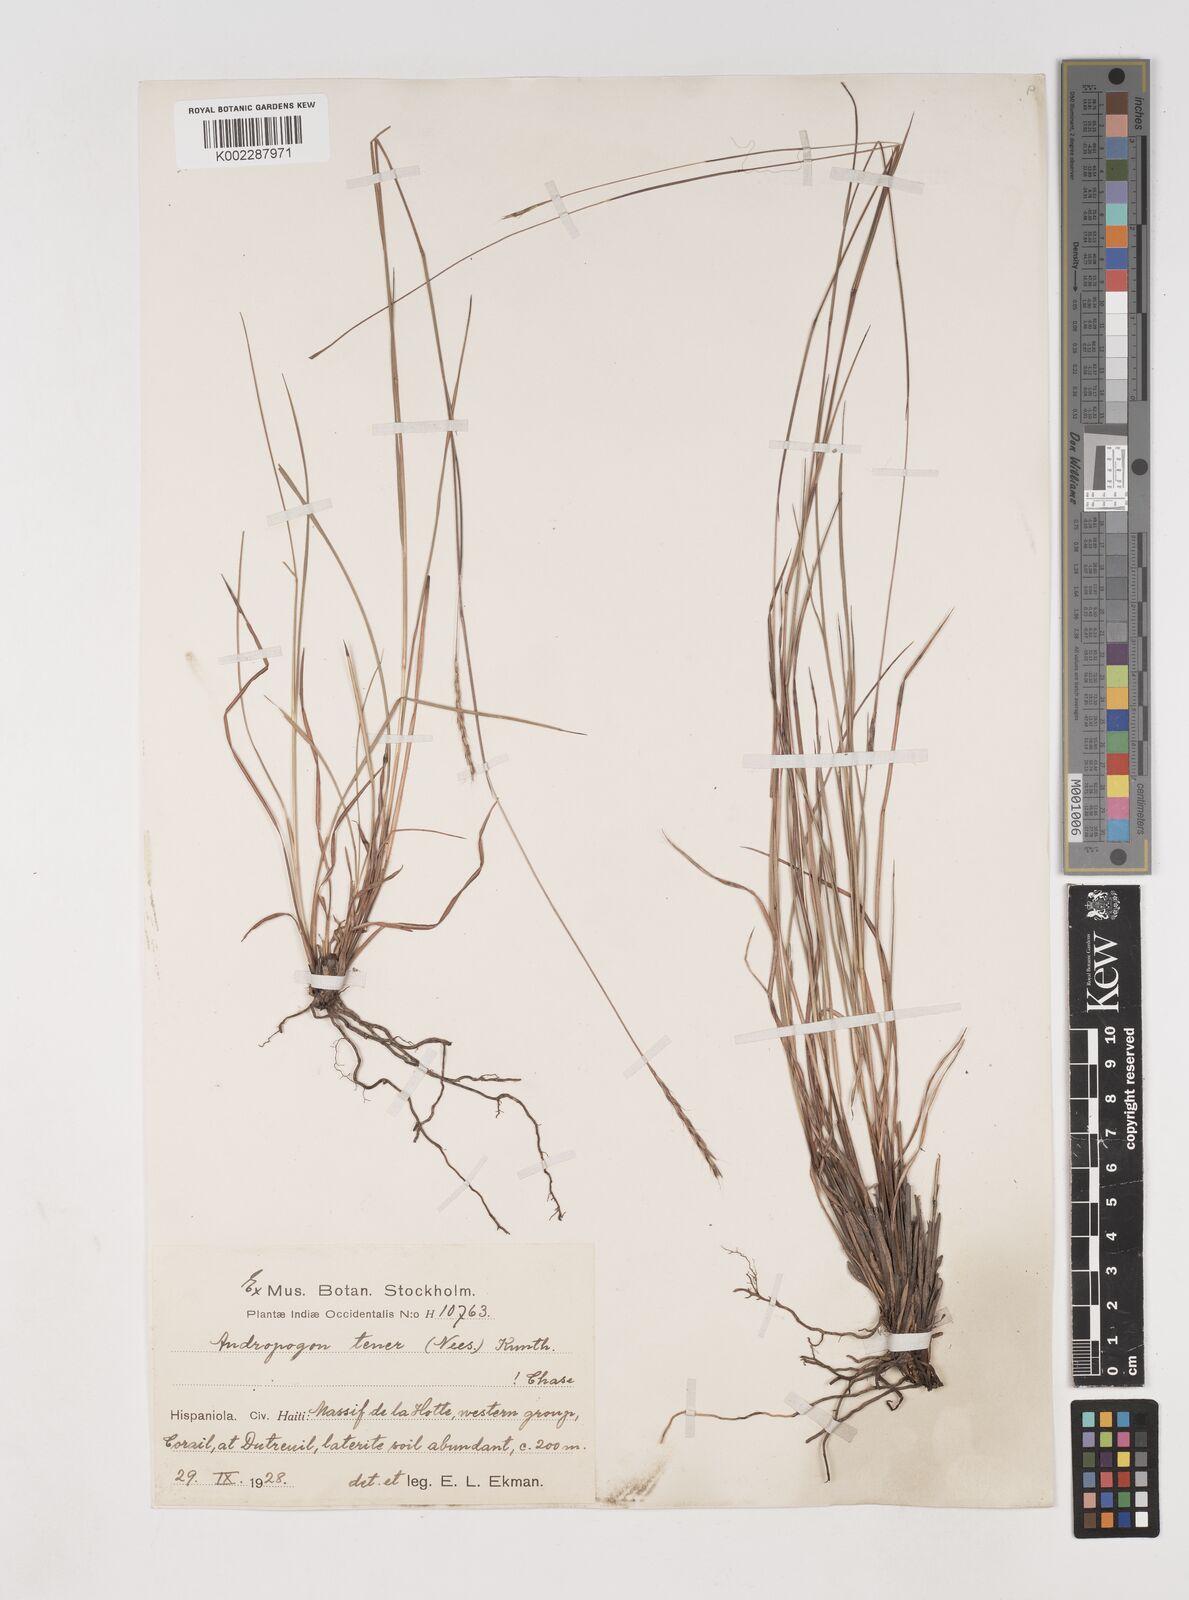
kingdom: Plantae
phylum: Tracheophyta
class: Liliopsida
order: Poales
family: Poaceae
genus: Andropogon
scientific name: Andropogon tener
